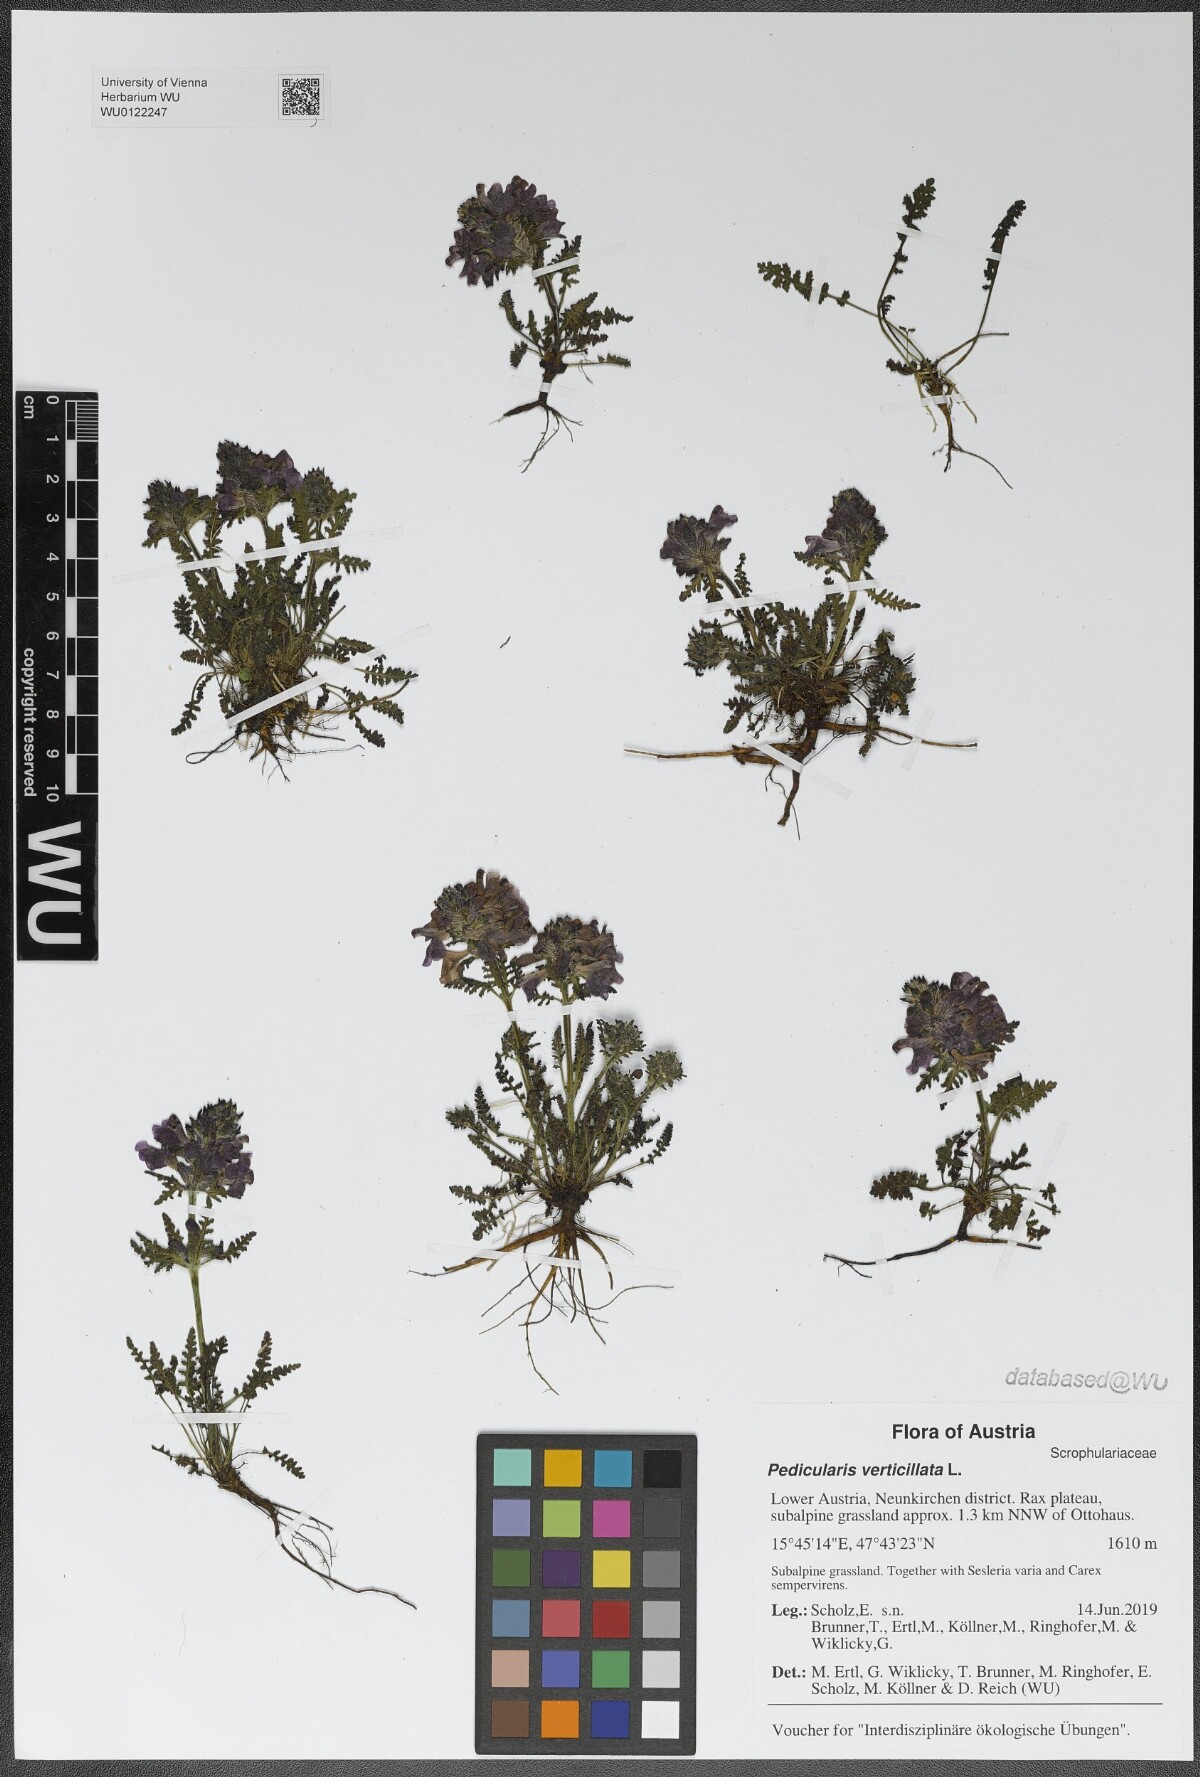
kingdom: Plantae
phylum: Tracheophyta
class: Magnoliopsida
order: Lamiales
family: Orobanchaceae
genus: Pedicularis
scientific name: Pedicularis verticillata
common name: Whorled lousewort
